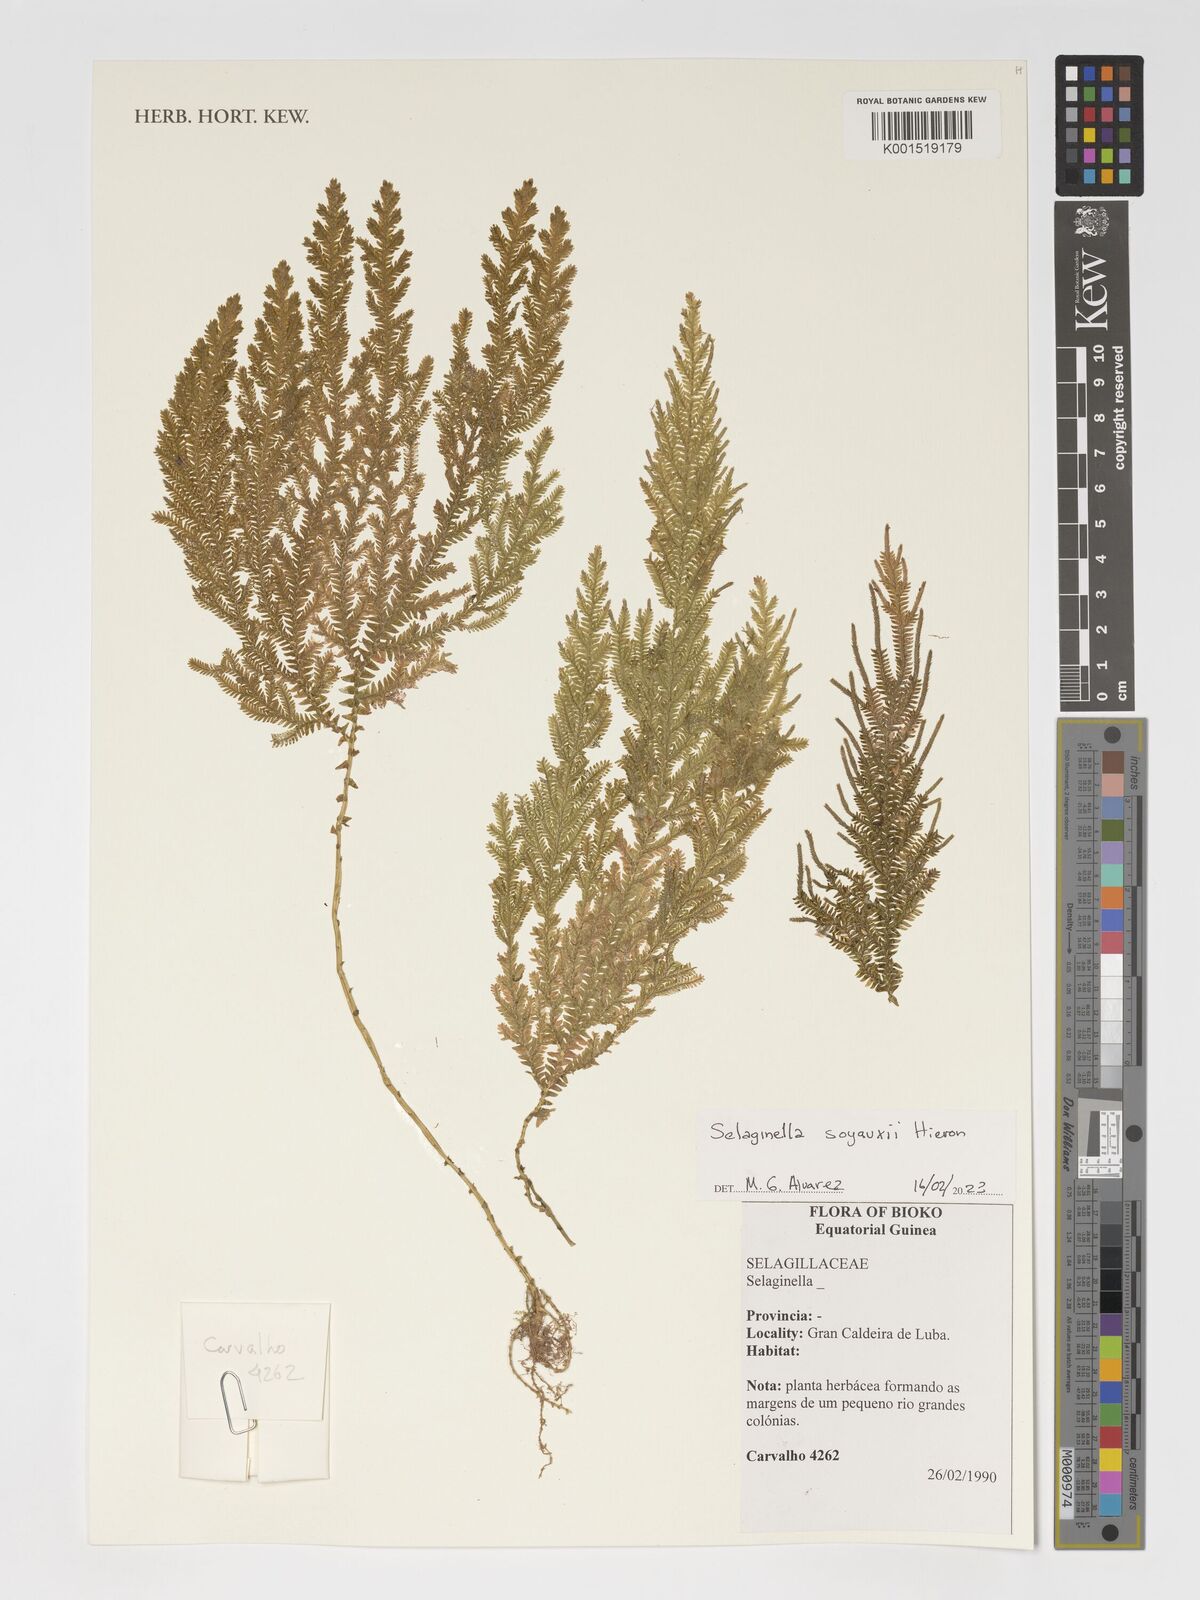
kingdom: Plantae
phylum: Tracheophyta
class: Lycopodiopsida
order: Selaginellales
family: Selaginellaceae
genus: Selaginella
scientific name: Selaginella soyauxii
